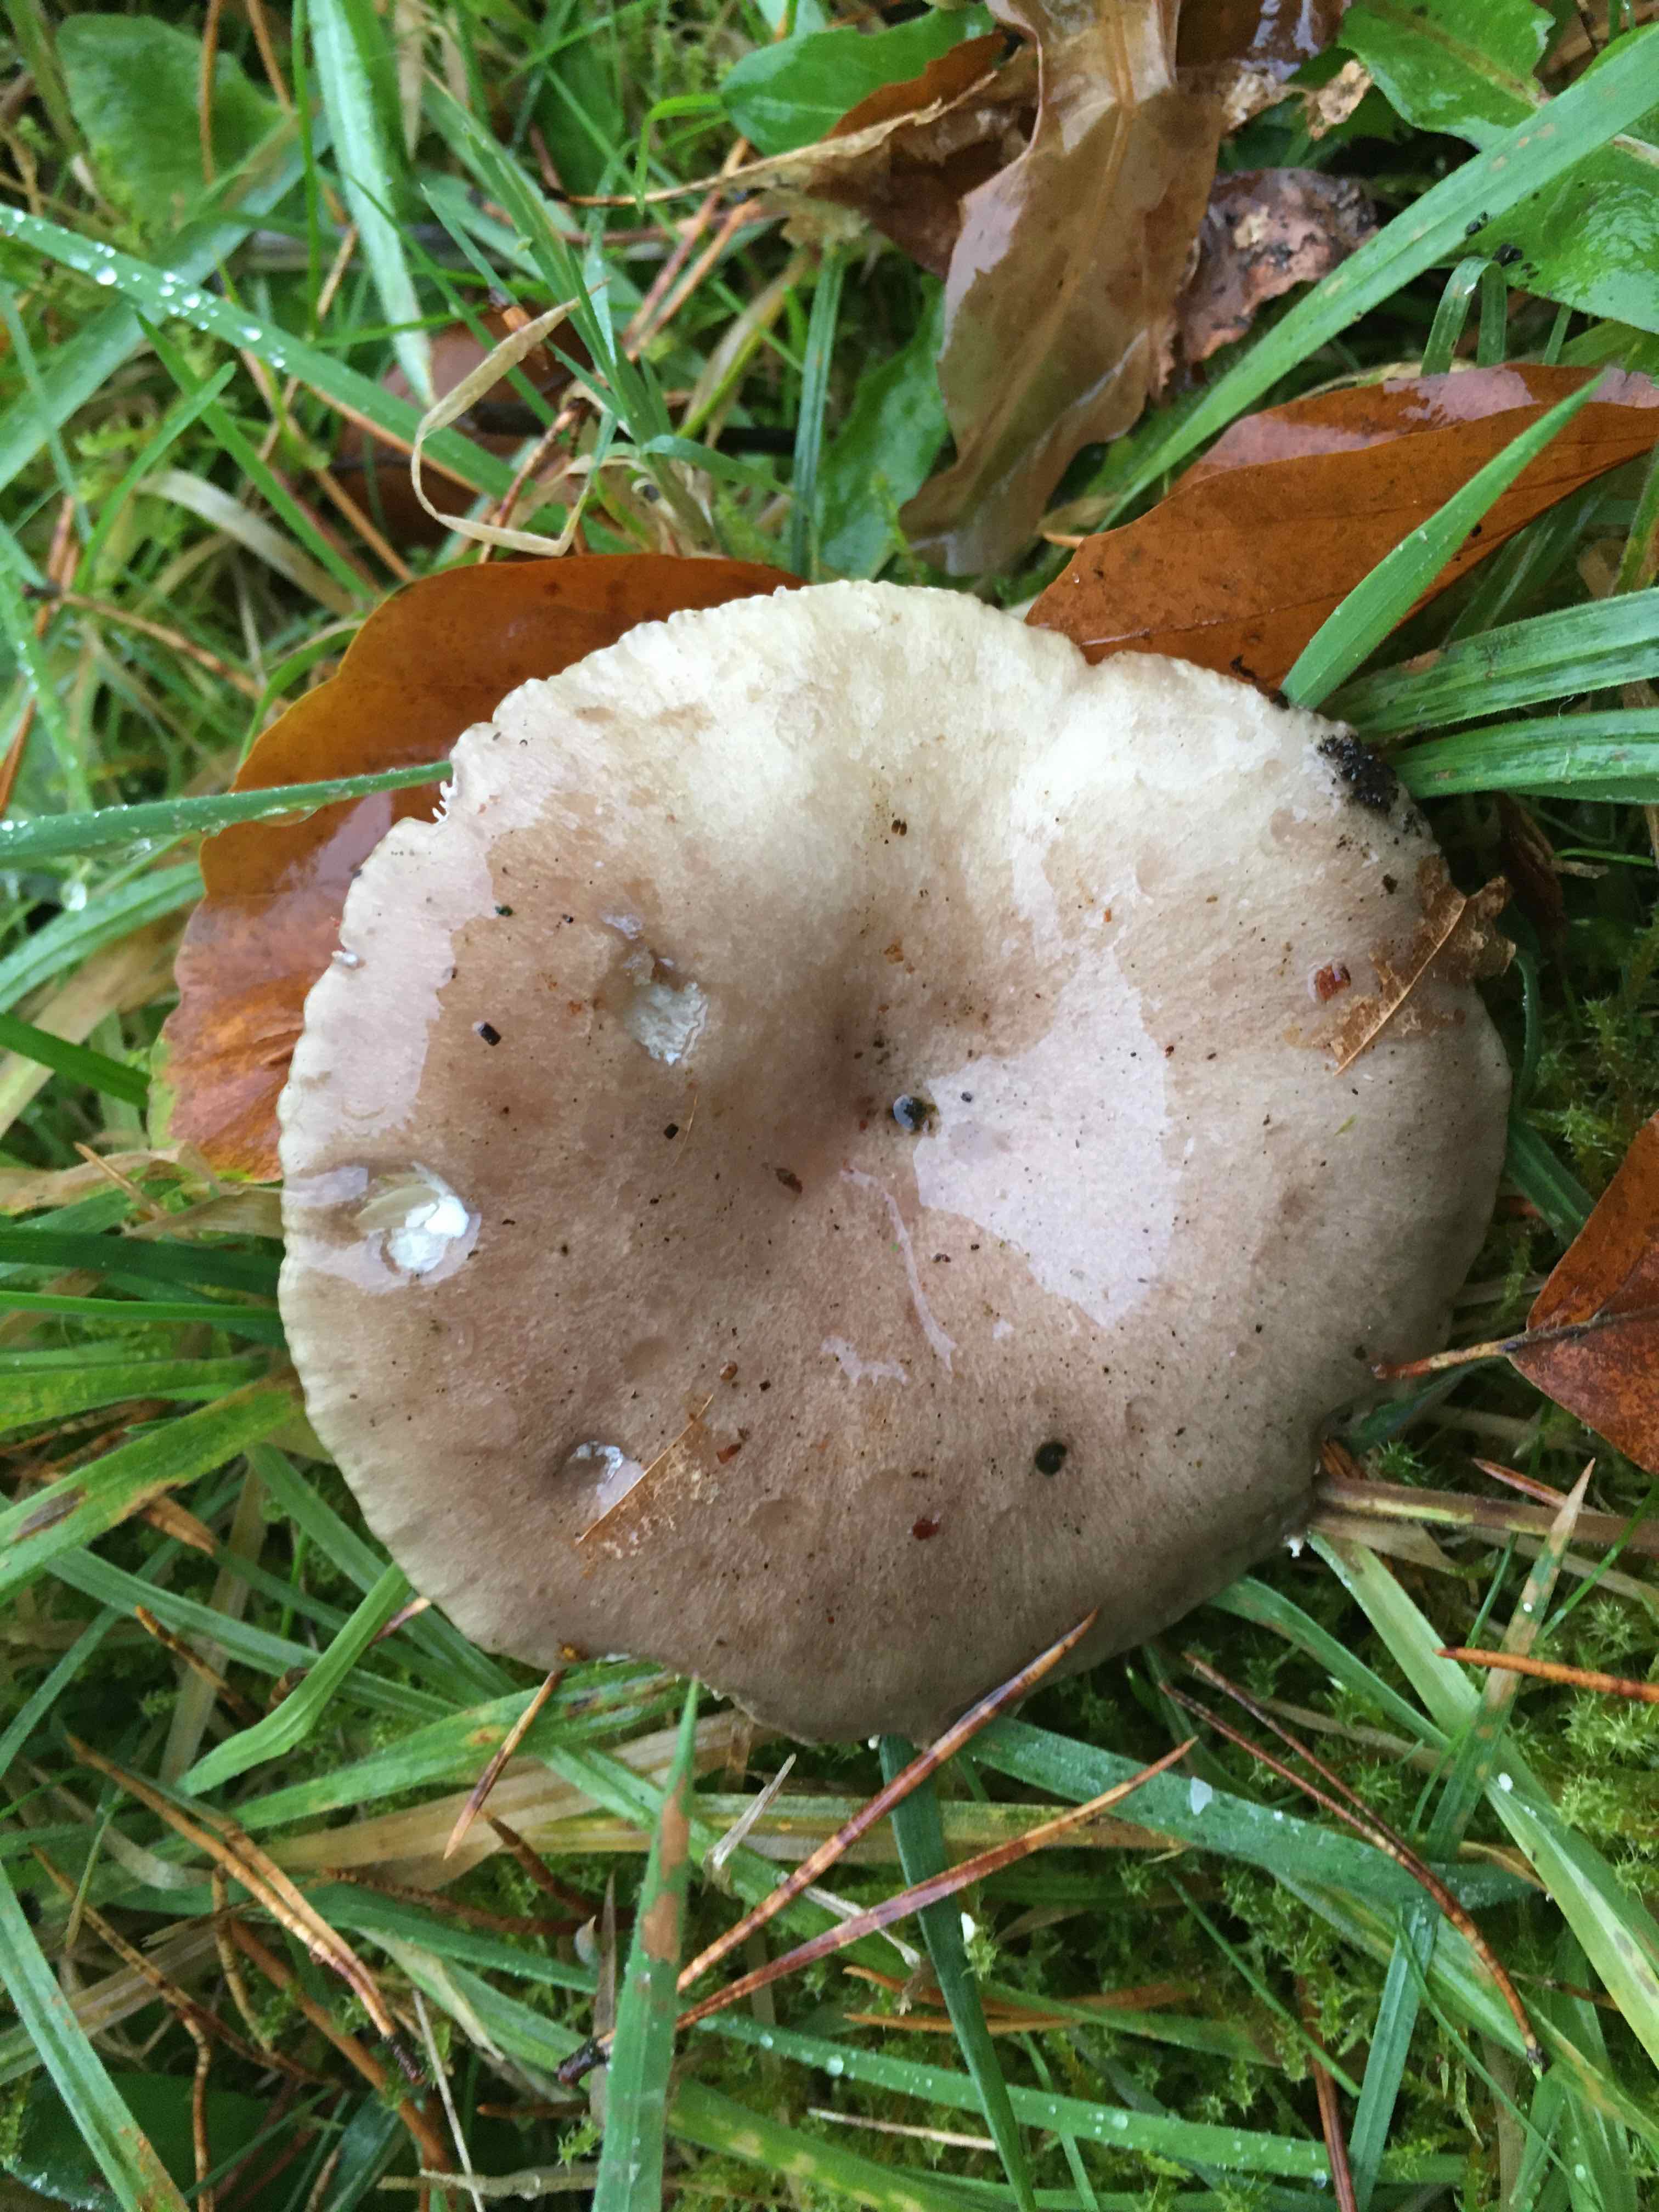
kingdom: Fungi
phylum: Basidiomycota
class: Agaricomycetes
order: Russulales
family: Russulaceae
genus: Lactarius
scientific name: Lactarius fluens
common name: lysrandet mælkehat
